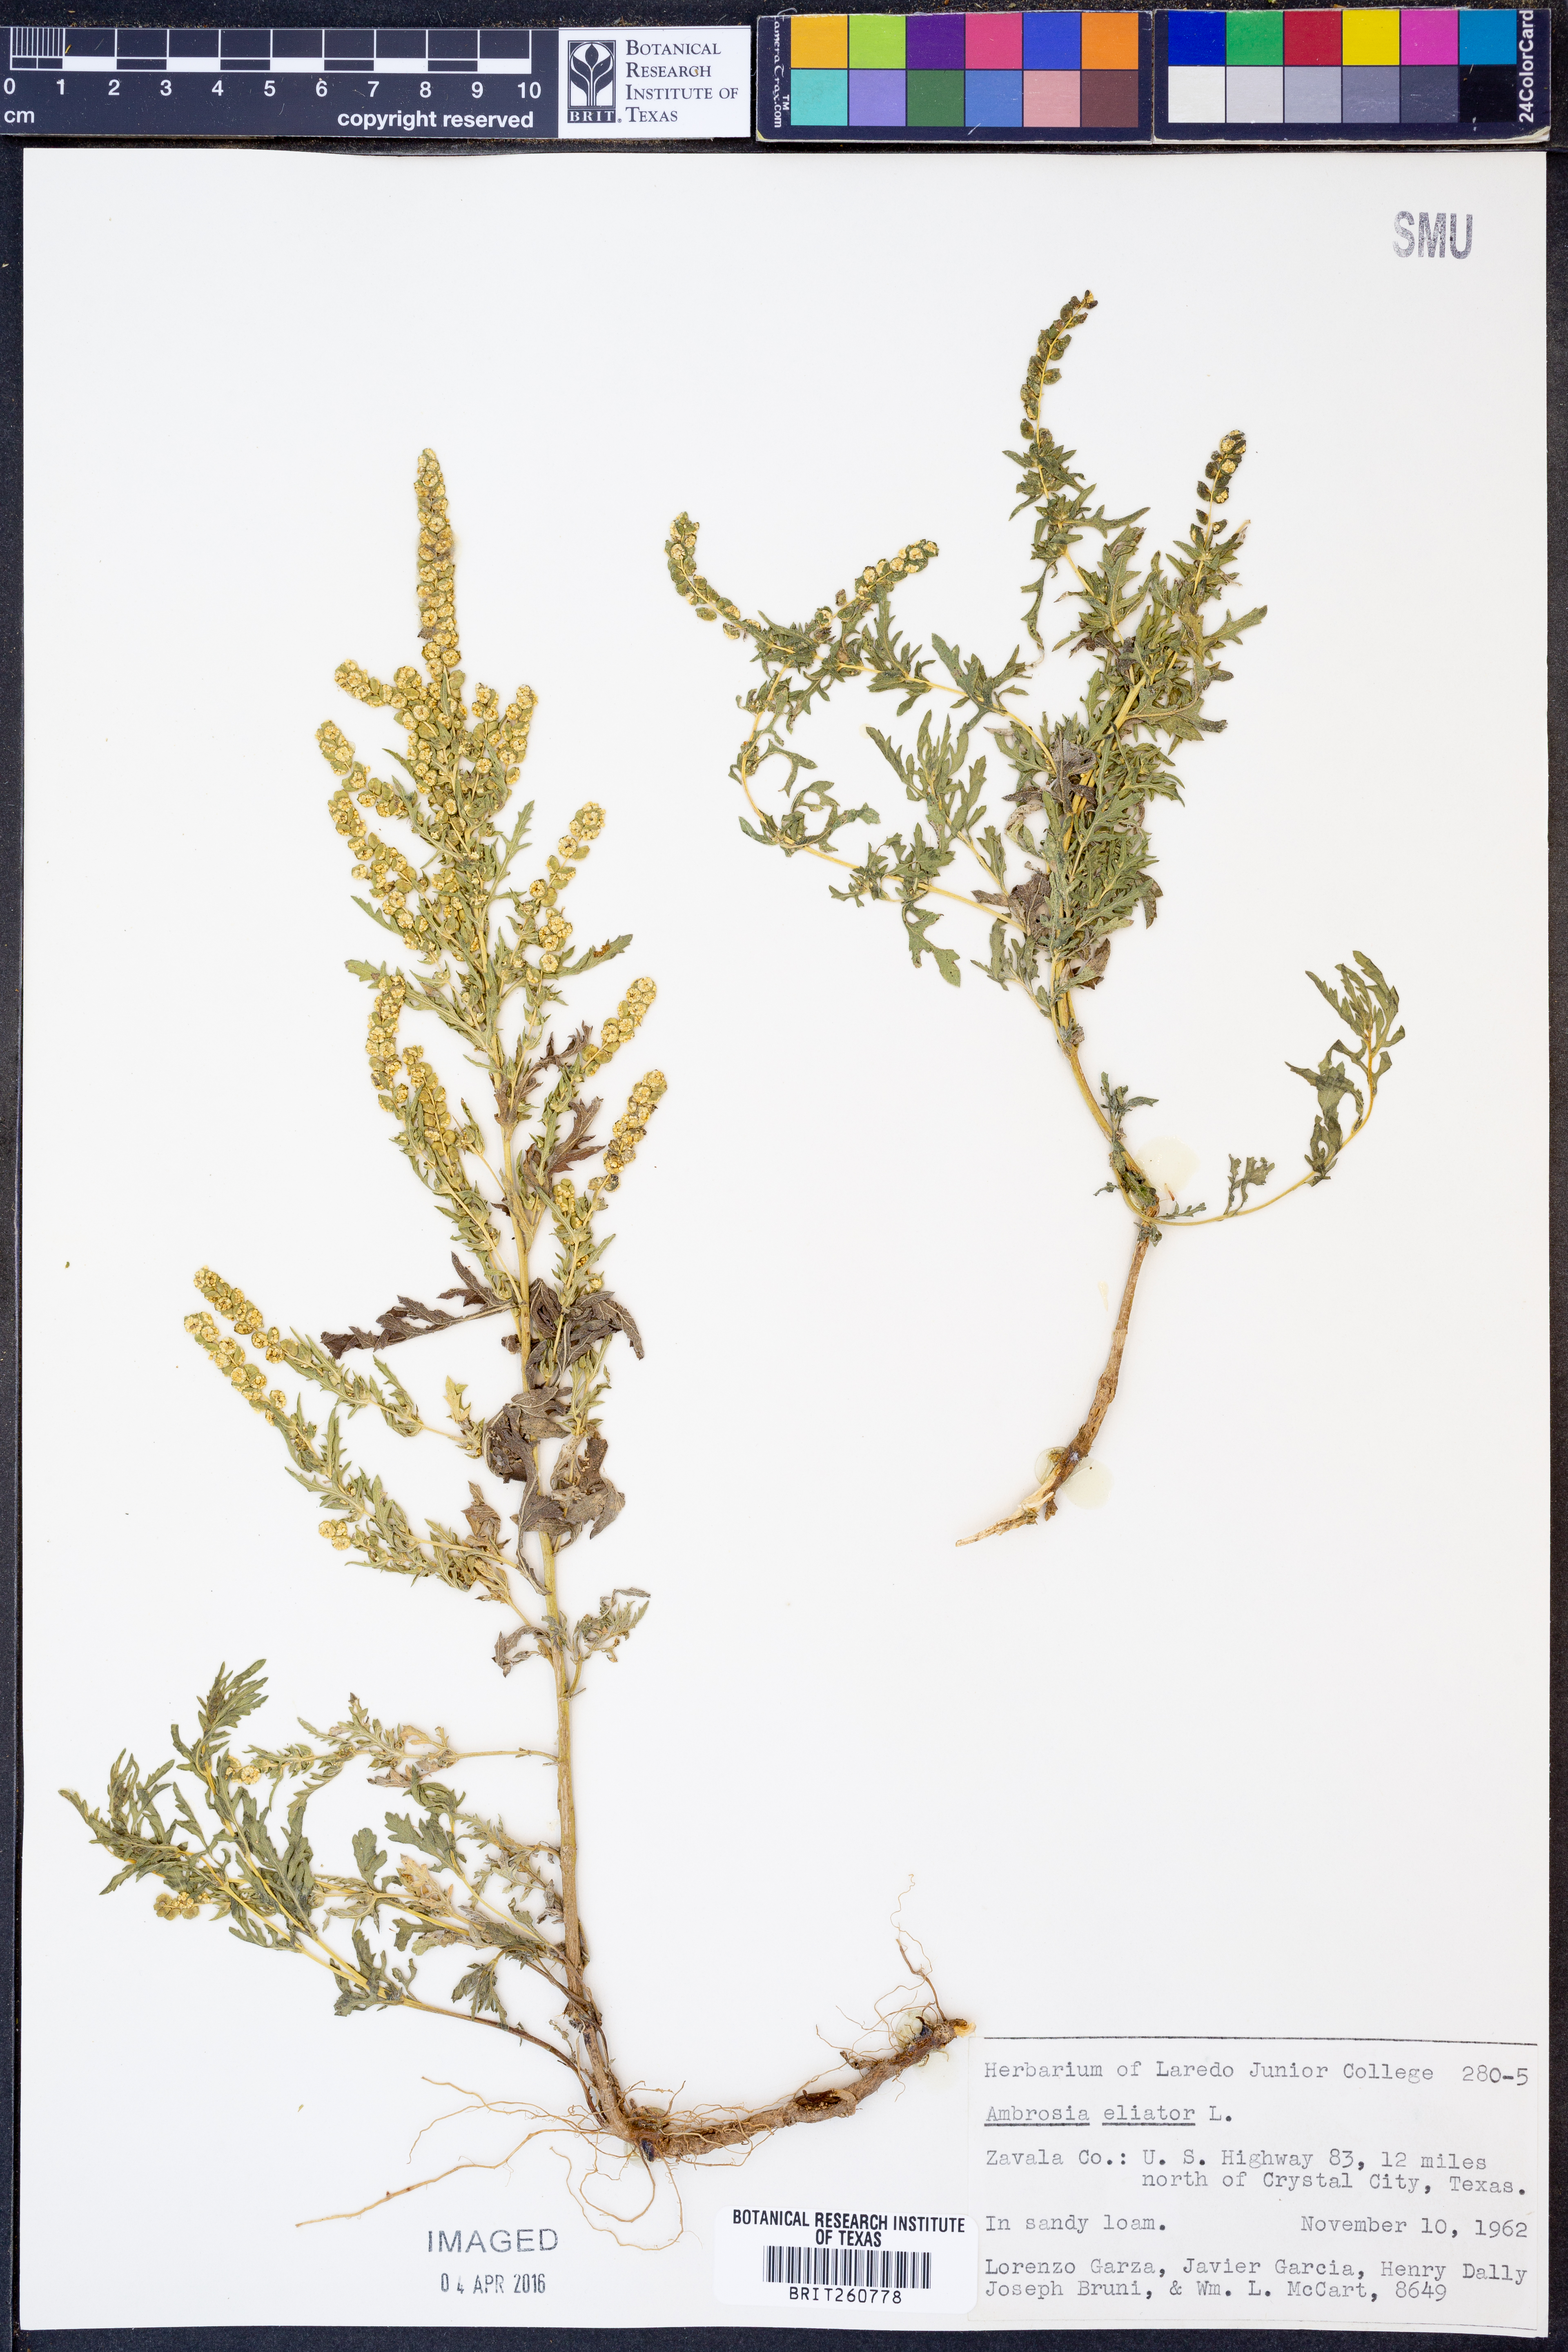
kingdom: Plantae
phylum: Tracheophyta
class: Magnoliopsida
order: Asterales
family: Asteraceae
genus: Ambrosia
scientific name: Ambrosia artemisiifolia
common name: Annual ragweed
